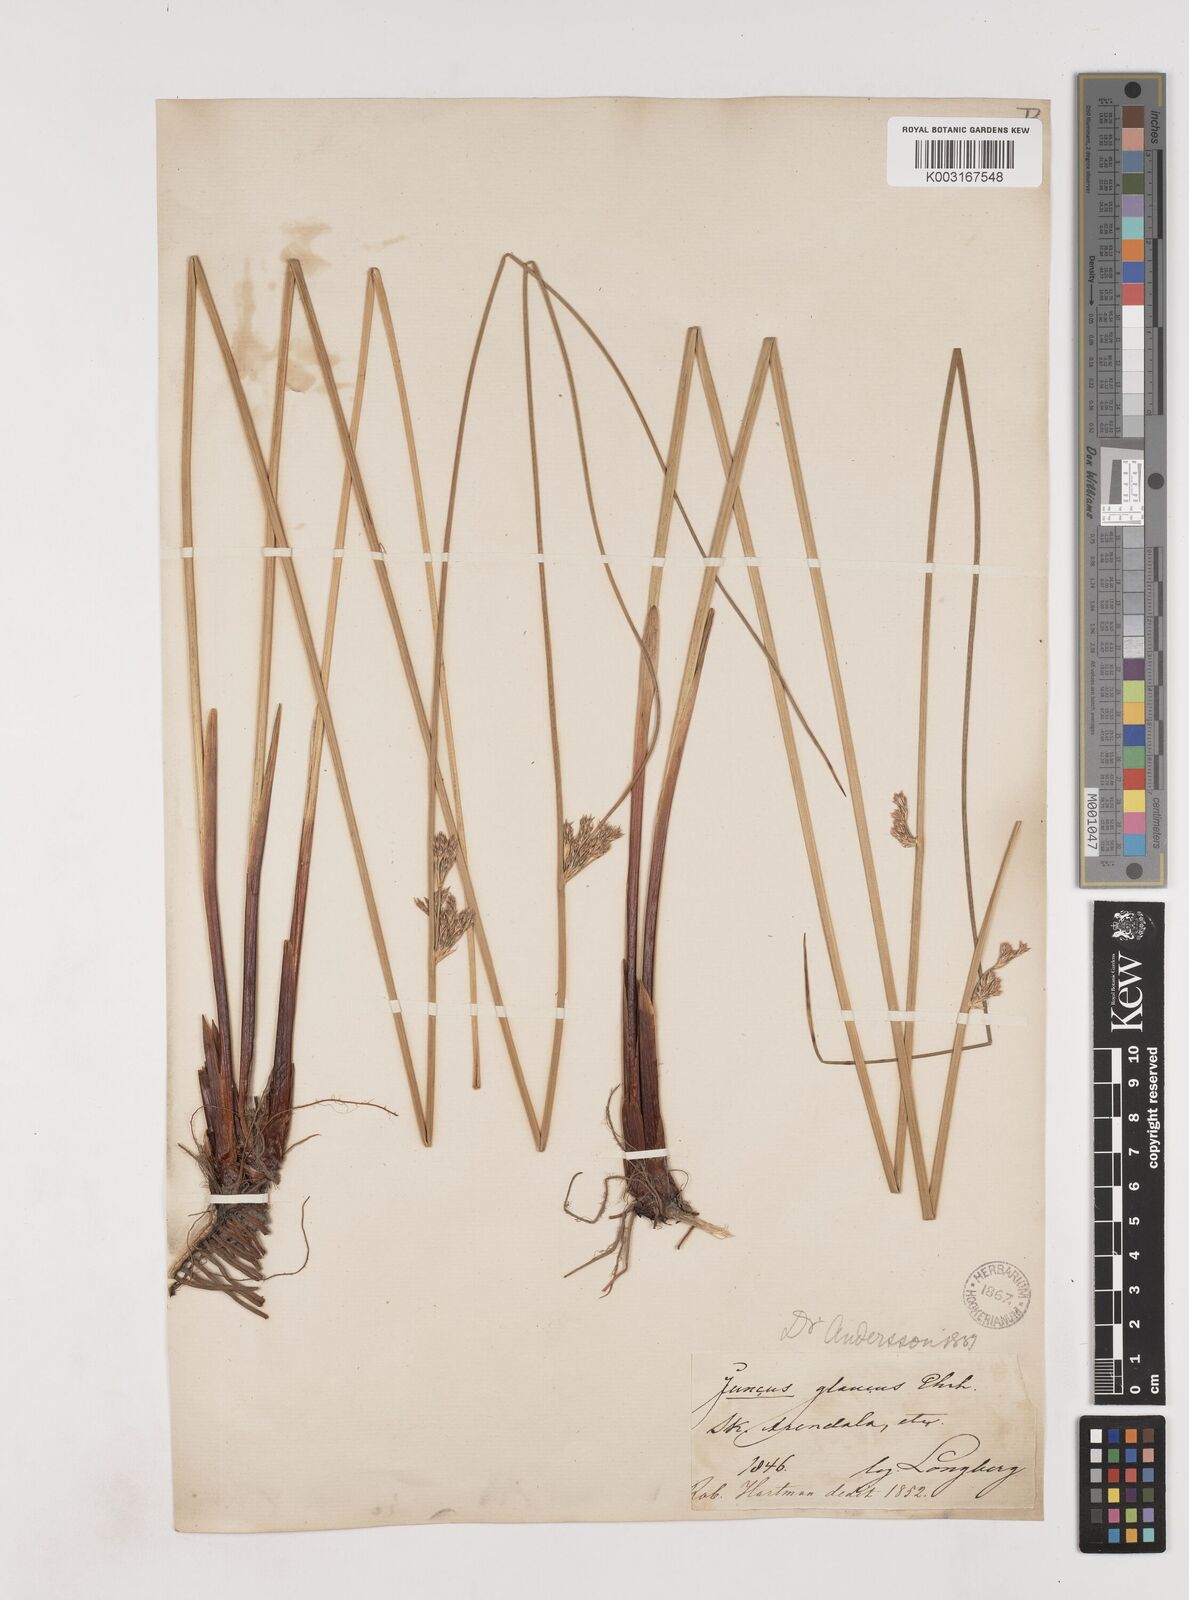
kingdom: Plantae
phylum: Tracheophyta
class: Liliopsida
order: Poales
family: Juncaceae
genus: Juncus
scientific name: Juncus inflexus
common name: Hard rush
